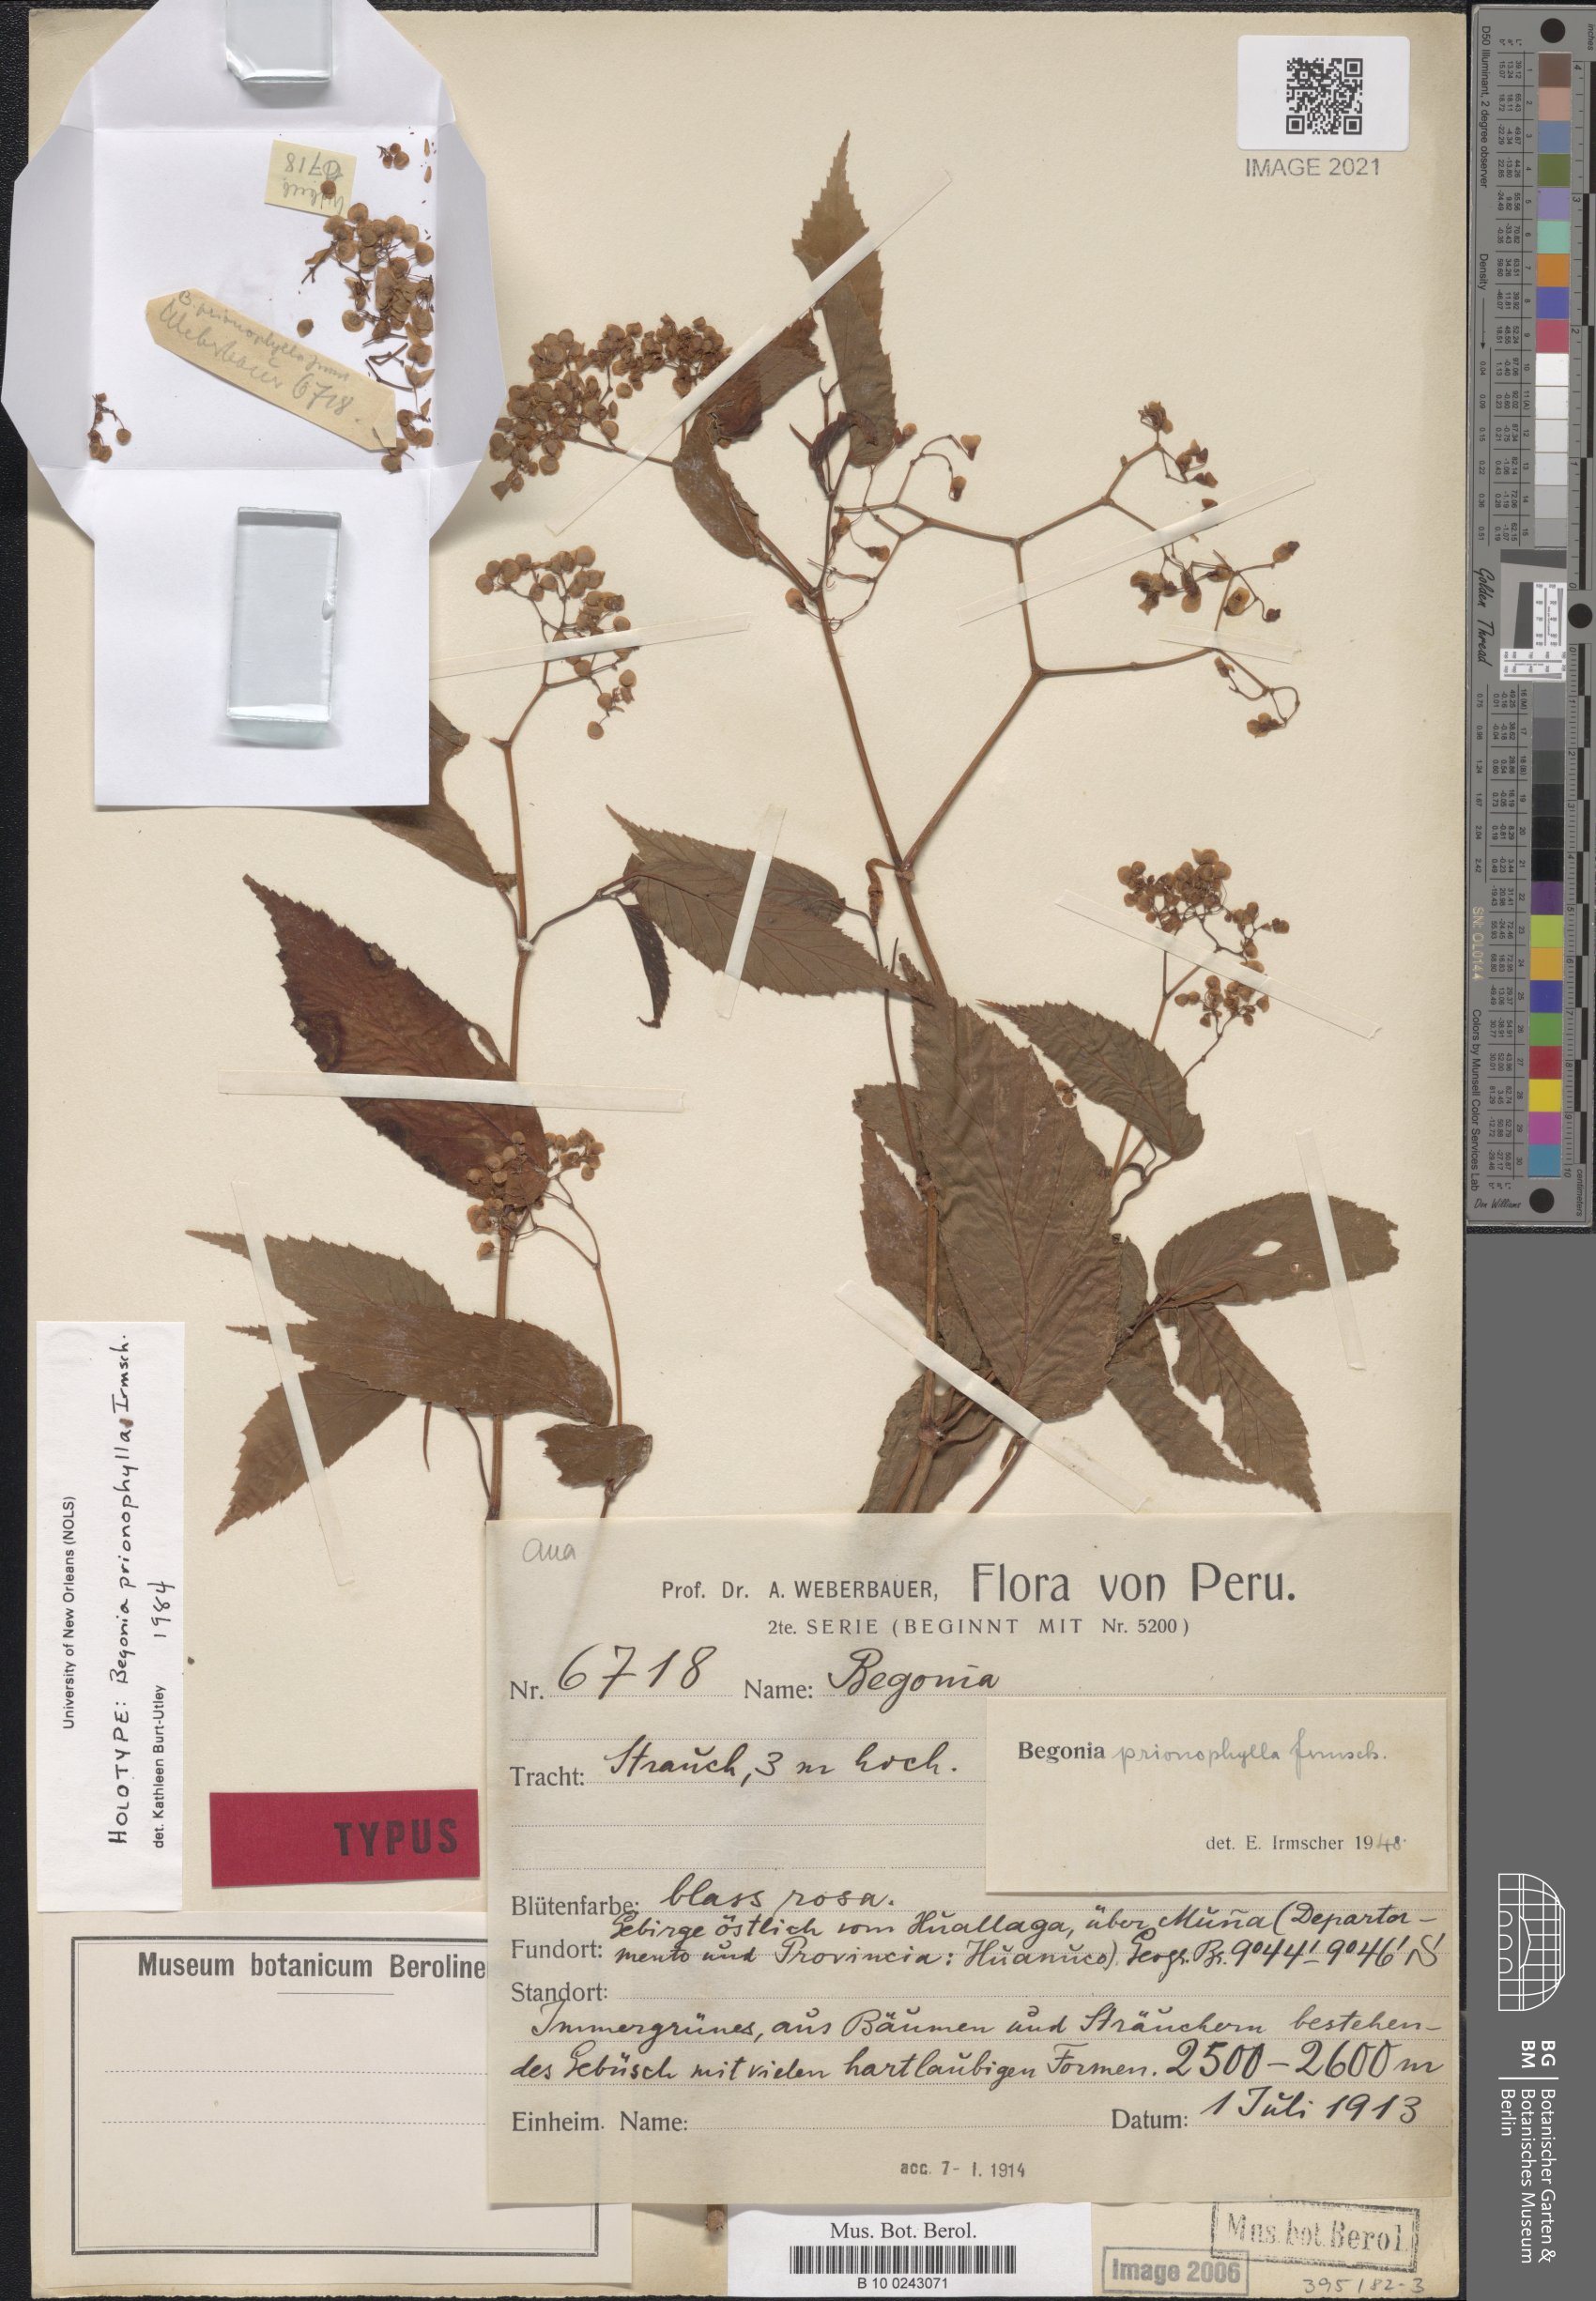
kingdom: Plantae
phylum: Tracheophyta
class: Magnoliopsida
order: Cucurbitales
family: Begoniaceae
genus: Begonia
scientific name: Begonia prionophylla
